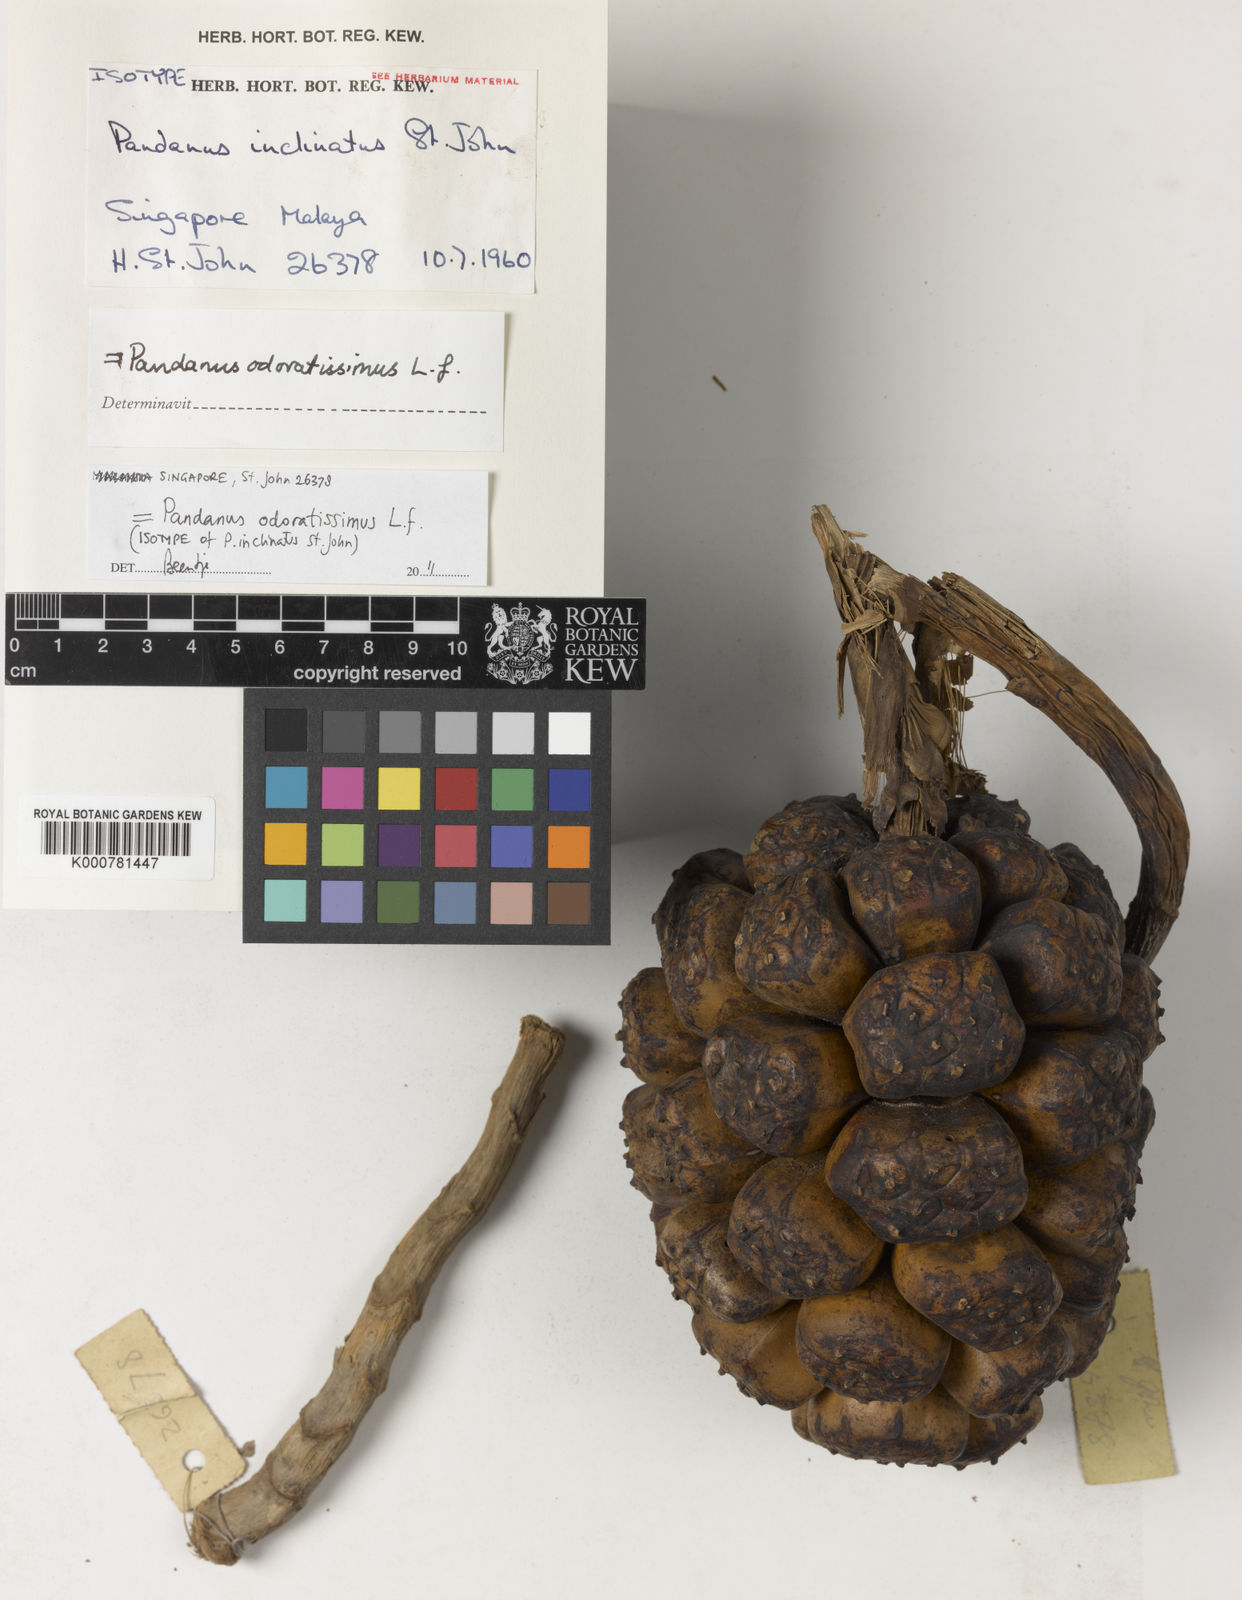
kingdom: Plantae
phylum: Tracheophyta
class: Liliopsida
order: Pandanales
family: Pandanaceae
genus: Pandanus
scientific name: Pandanus odorifer
